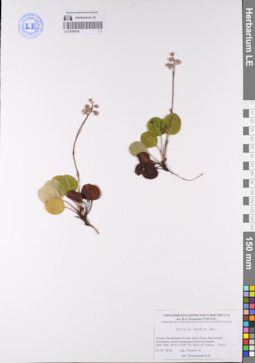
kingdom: Plantae
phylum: Tracheophyta
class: Magnoliopsida
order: Ericales
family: Ericaceae
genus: Pyrola
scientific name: Pyrola media
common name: Intermediate wintergreen
